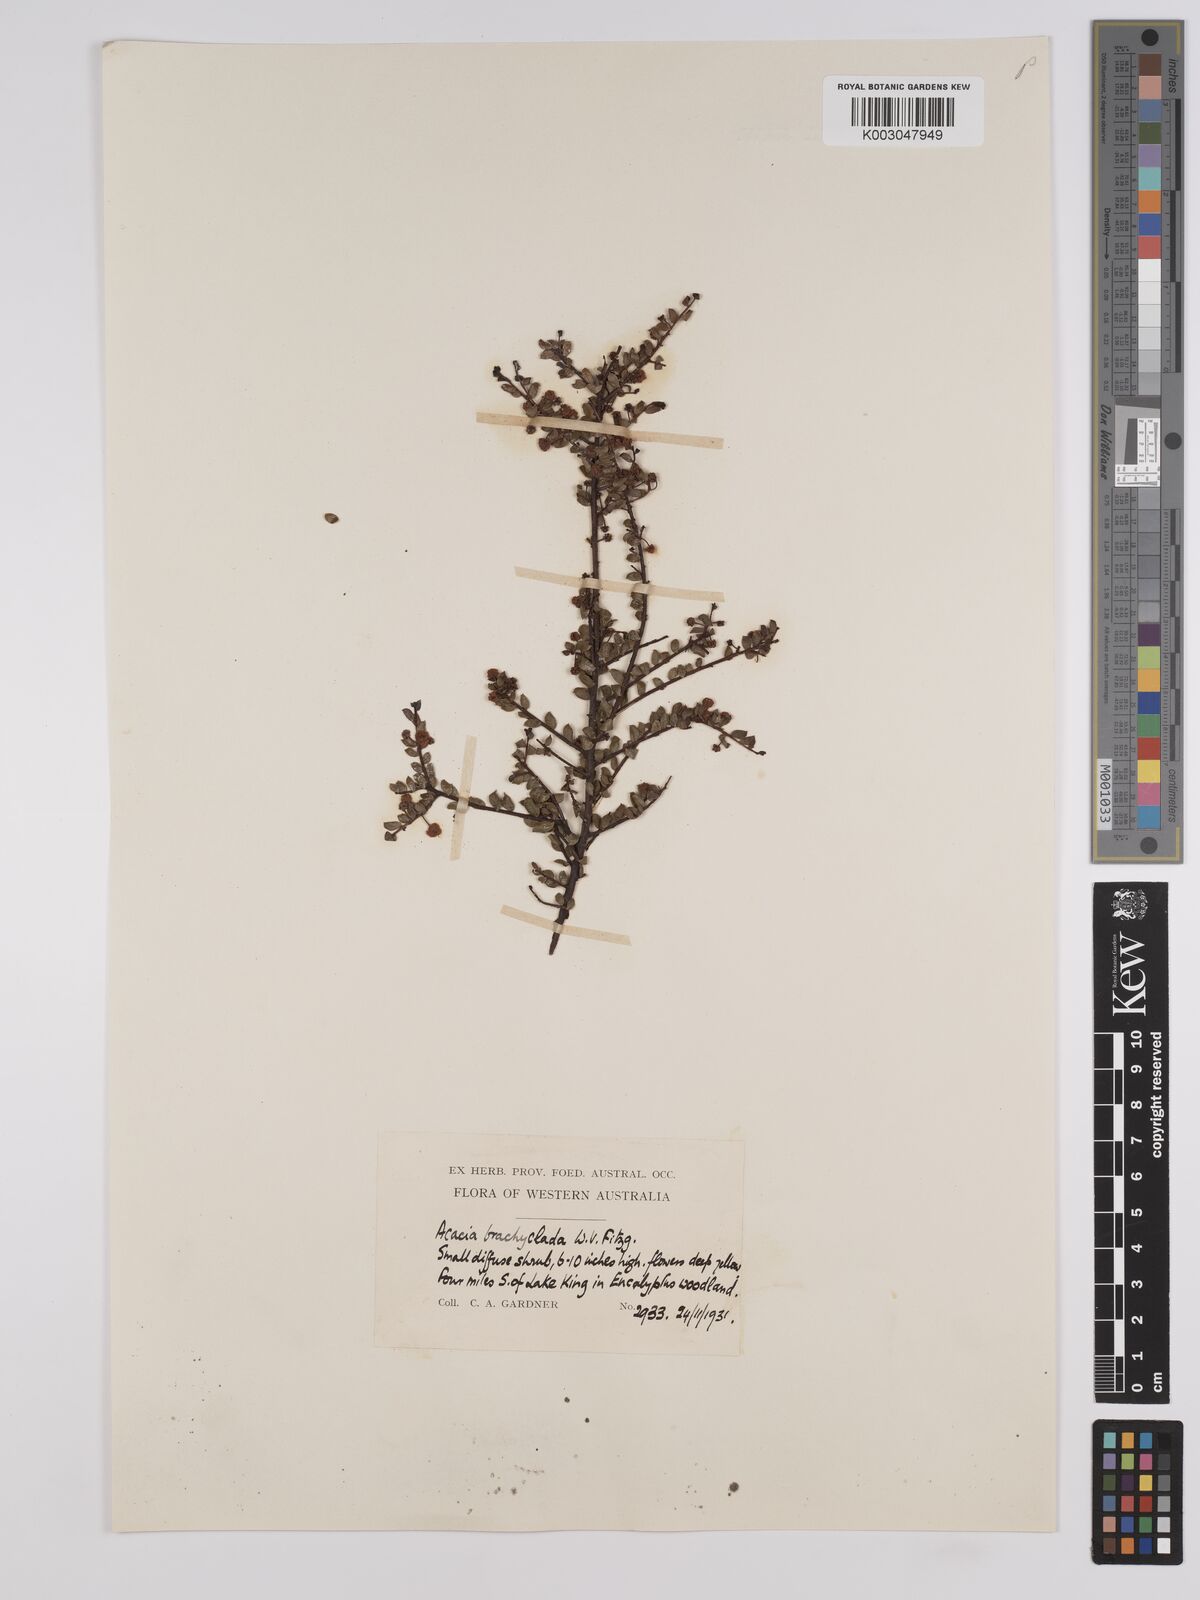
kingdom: Plantae
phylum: Tracheophyta
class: Magnoliopsida
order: Fabales
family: Fabaceae
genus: Acacia
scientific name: Acacia brachyclada
